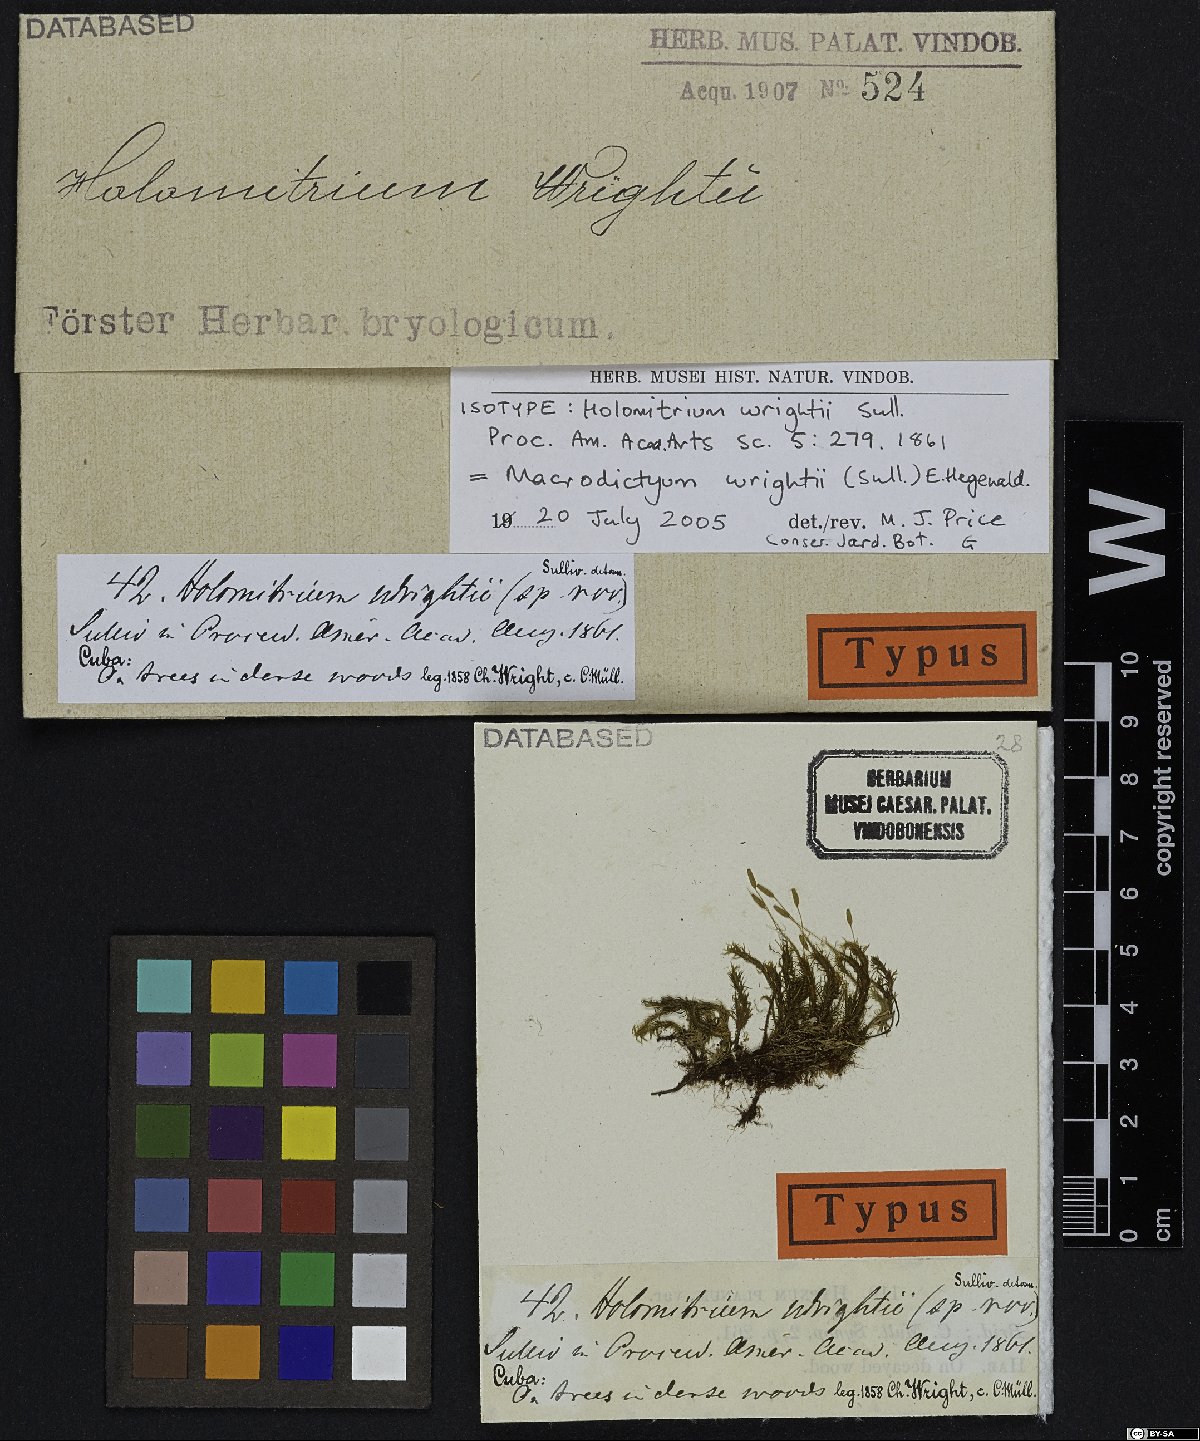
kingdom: Plantae
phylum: Bryophyta
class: Bryopsida
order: Dicranales
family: Dicranaceae
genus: Macrodictyum
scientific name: Macrodictyum wrightii
